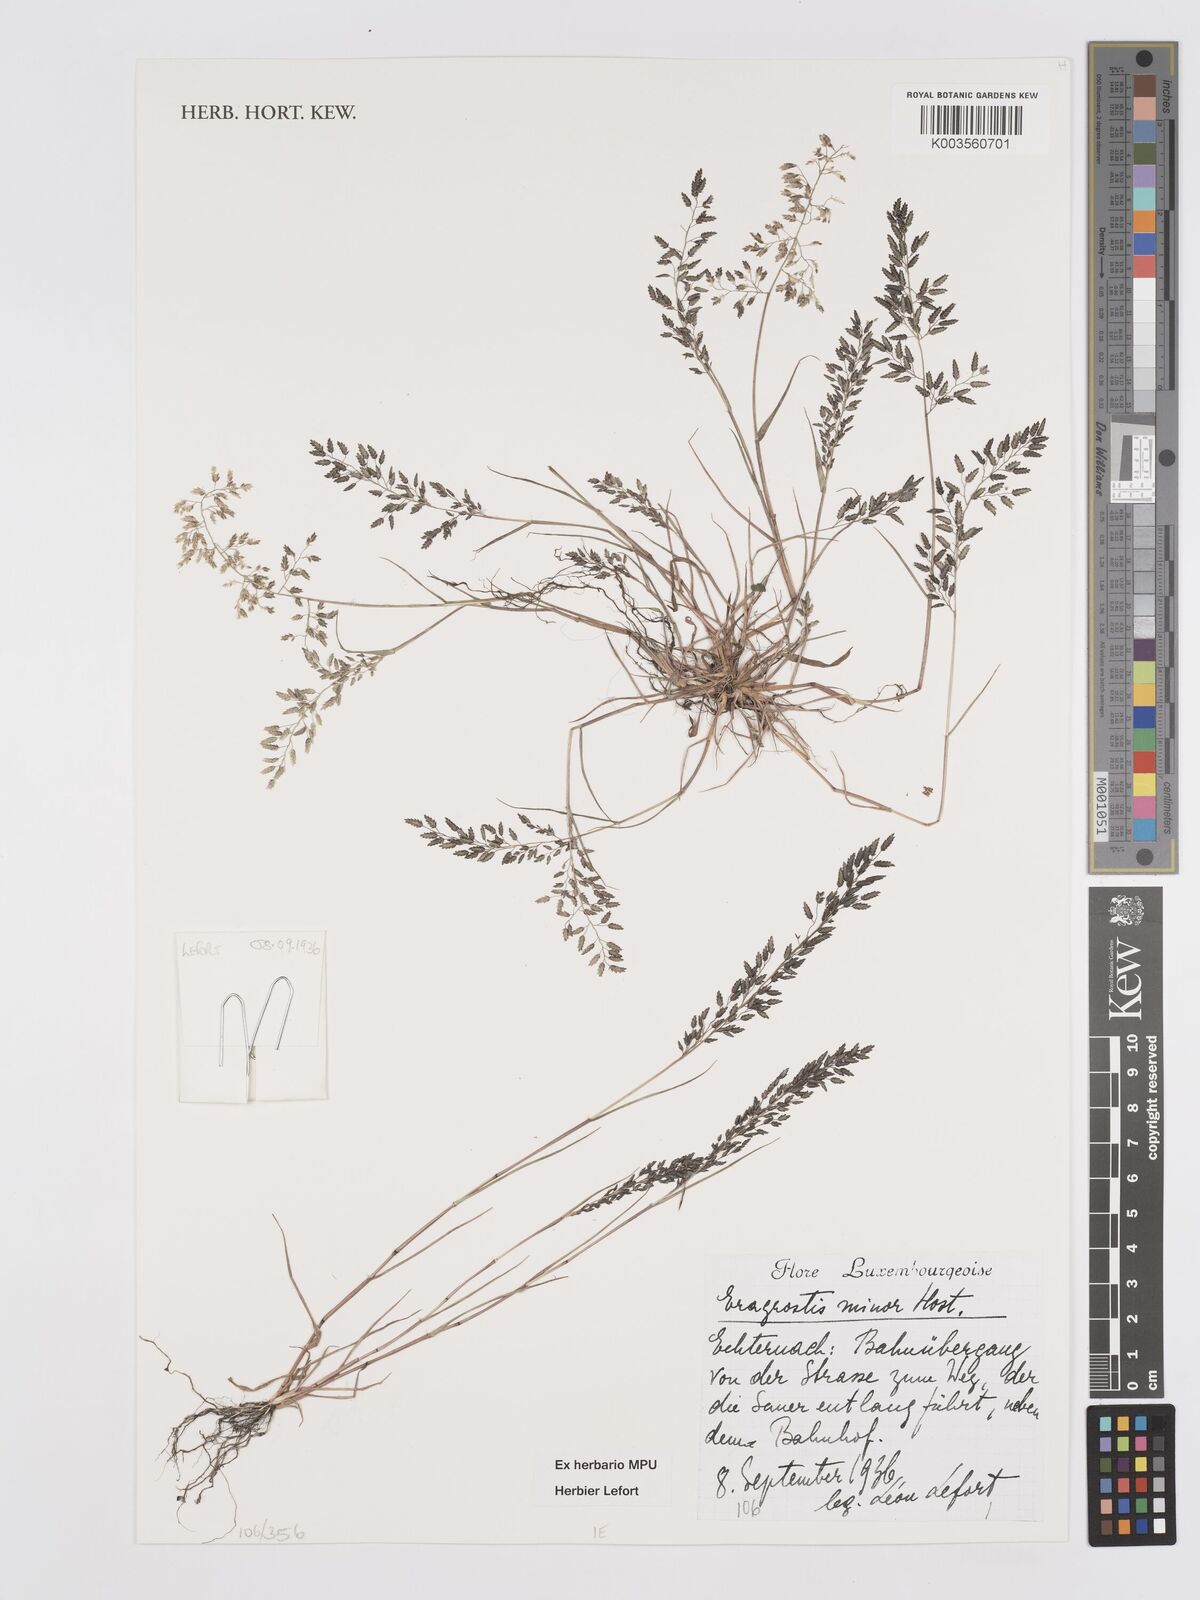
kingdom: Plantae
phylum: Tracheophyta
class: Liliopsida
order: Poales
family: Poaceae
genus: Eragrostis
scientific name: Eragrostis minor
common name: Small love-grass
